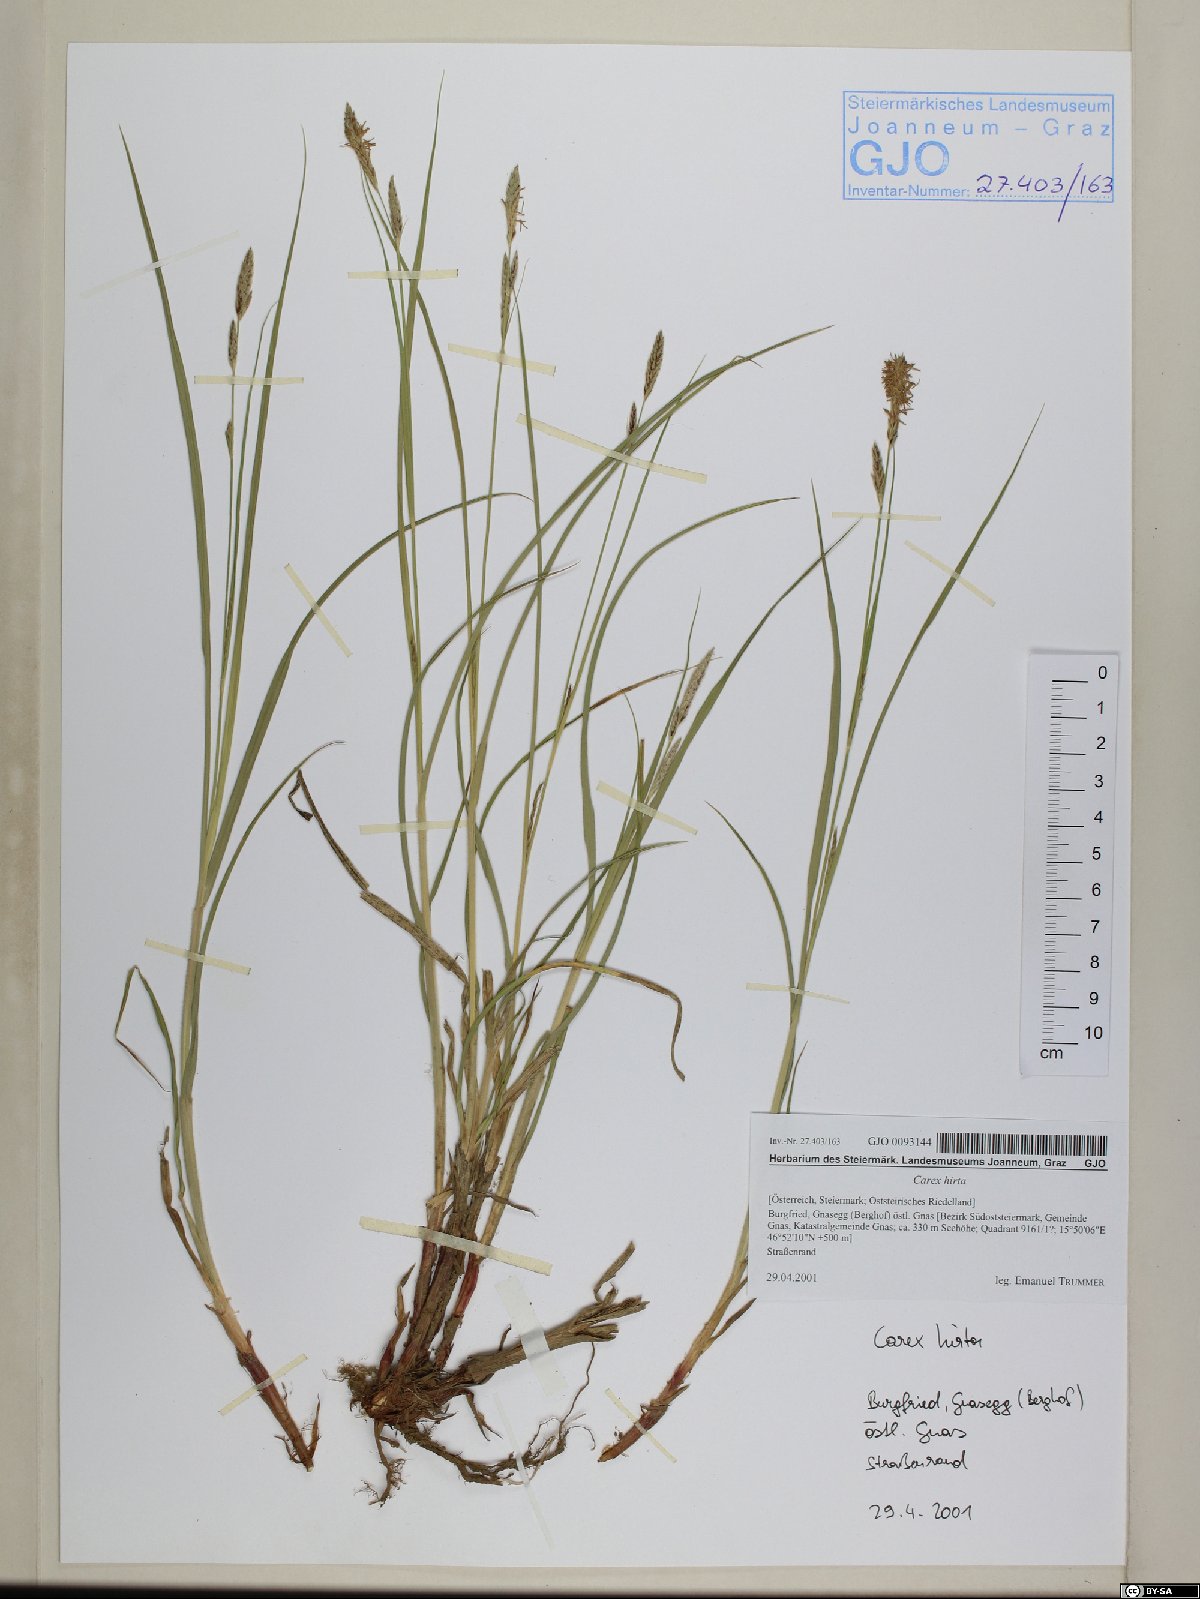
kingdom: Plantae
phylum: Tracheophyta
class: Liliopsida
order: Poales
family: Cyperaceae
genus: Carex
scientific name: Carex hirta
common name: Hairy sedge
